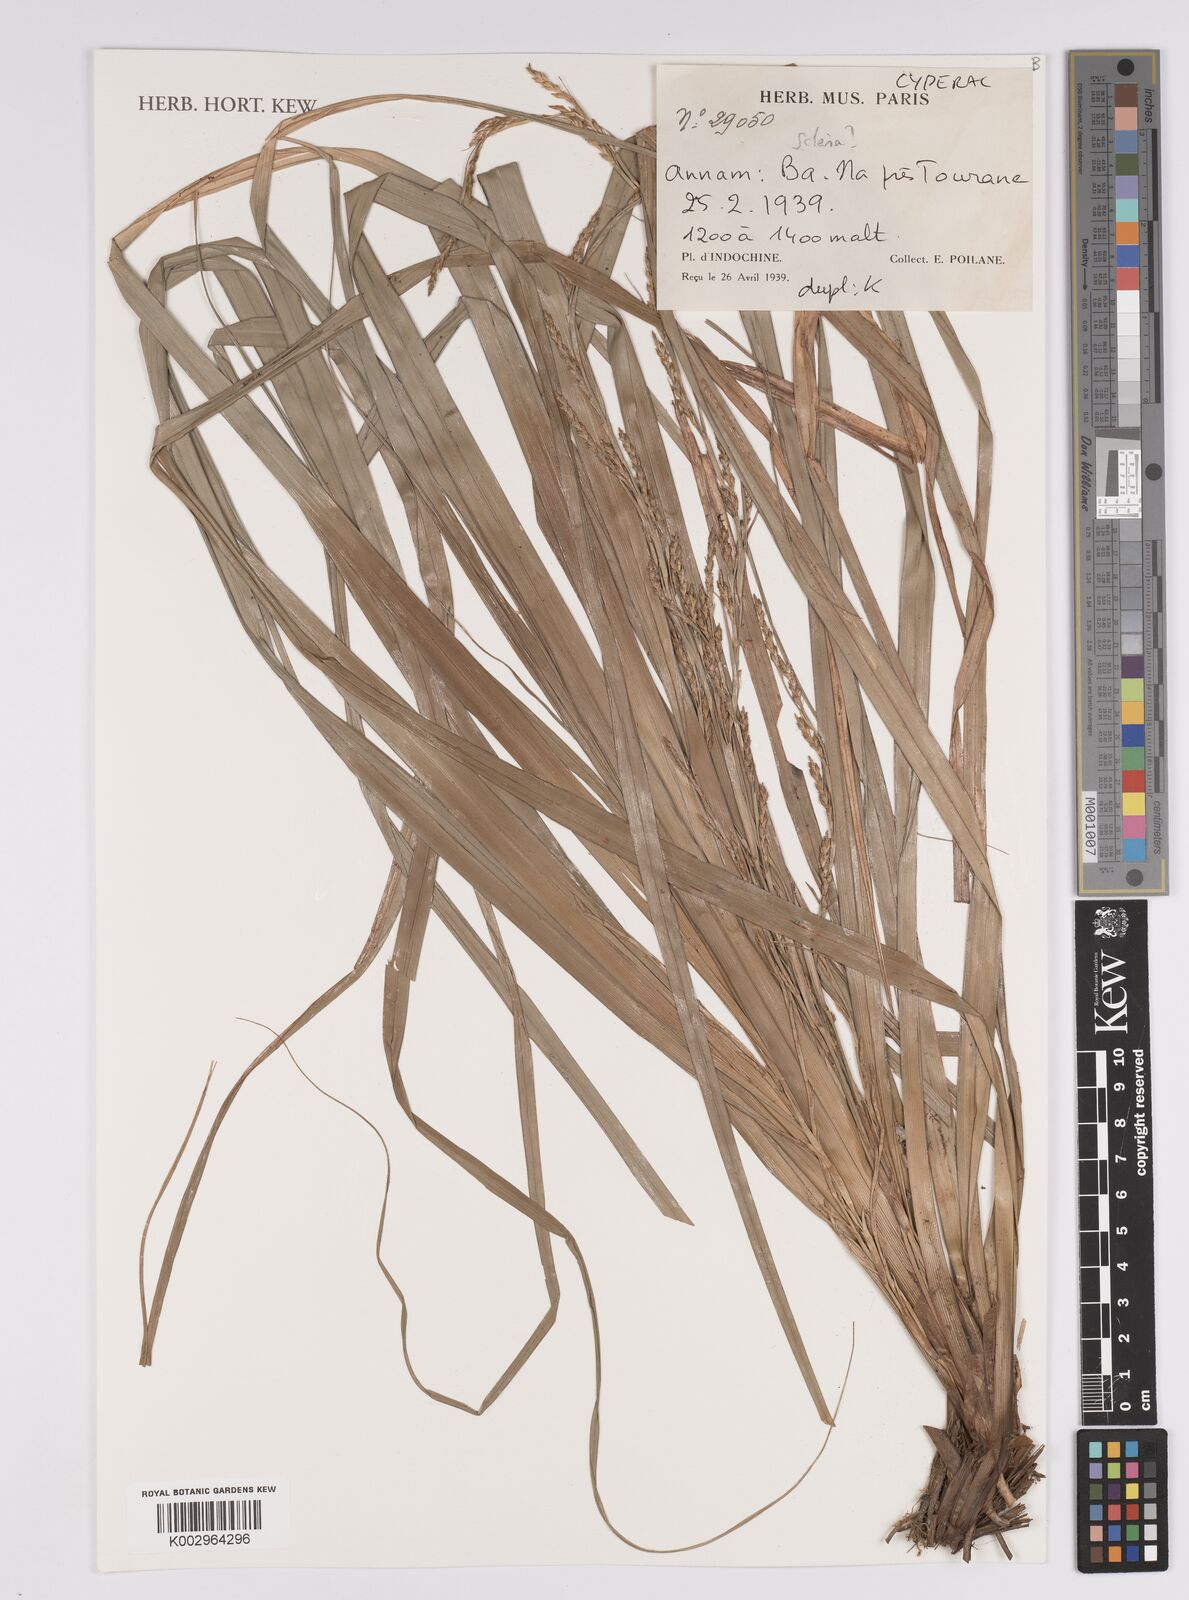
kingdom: Plantae
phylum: Tracheophyta
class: Liliopsida
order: Poales
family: Cyperaceae
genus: Scleria
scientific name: Scleria
